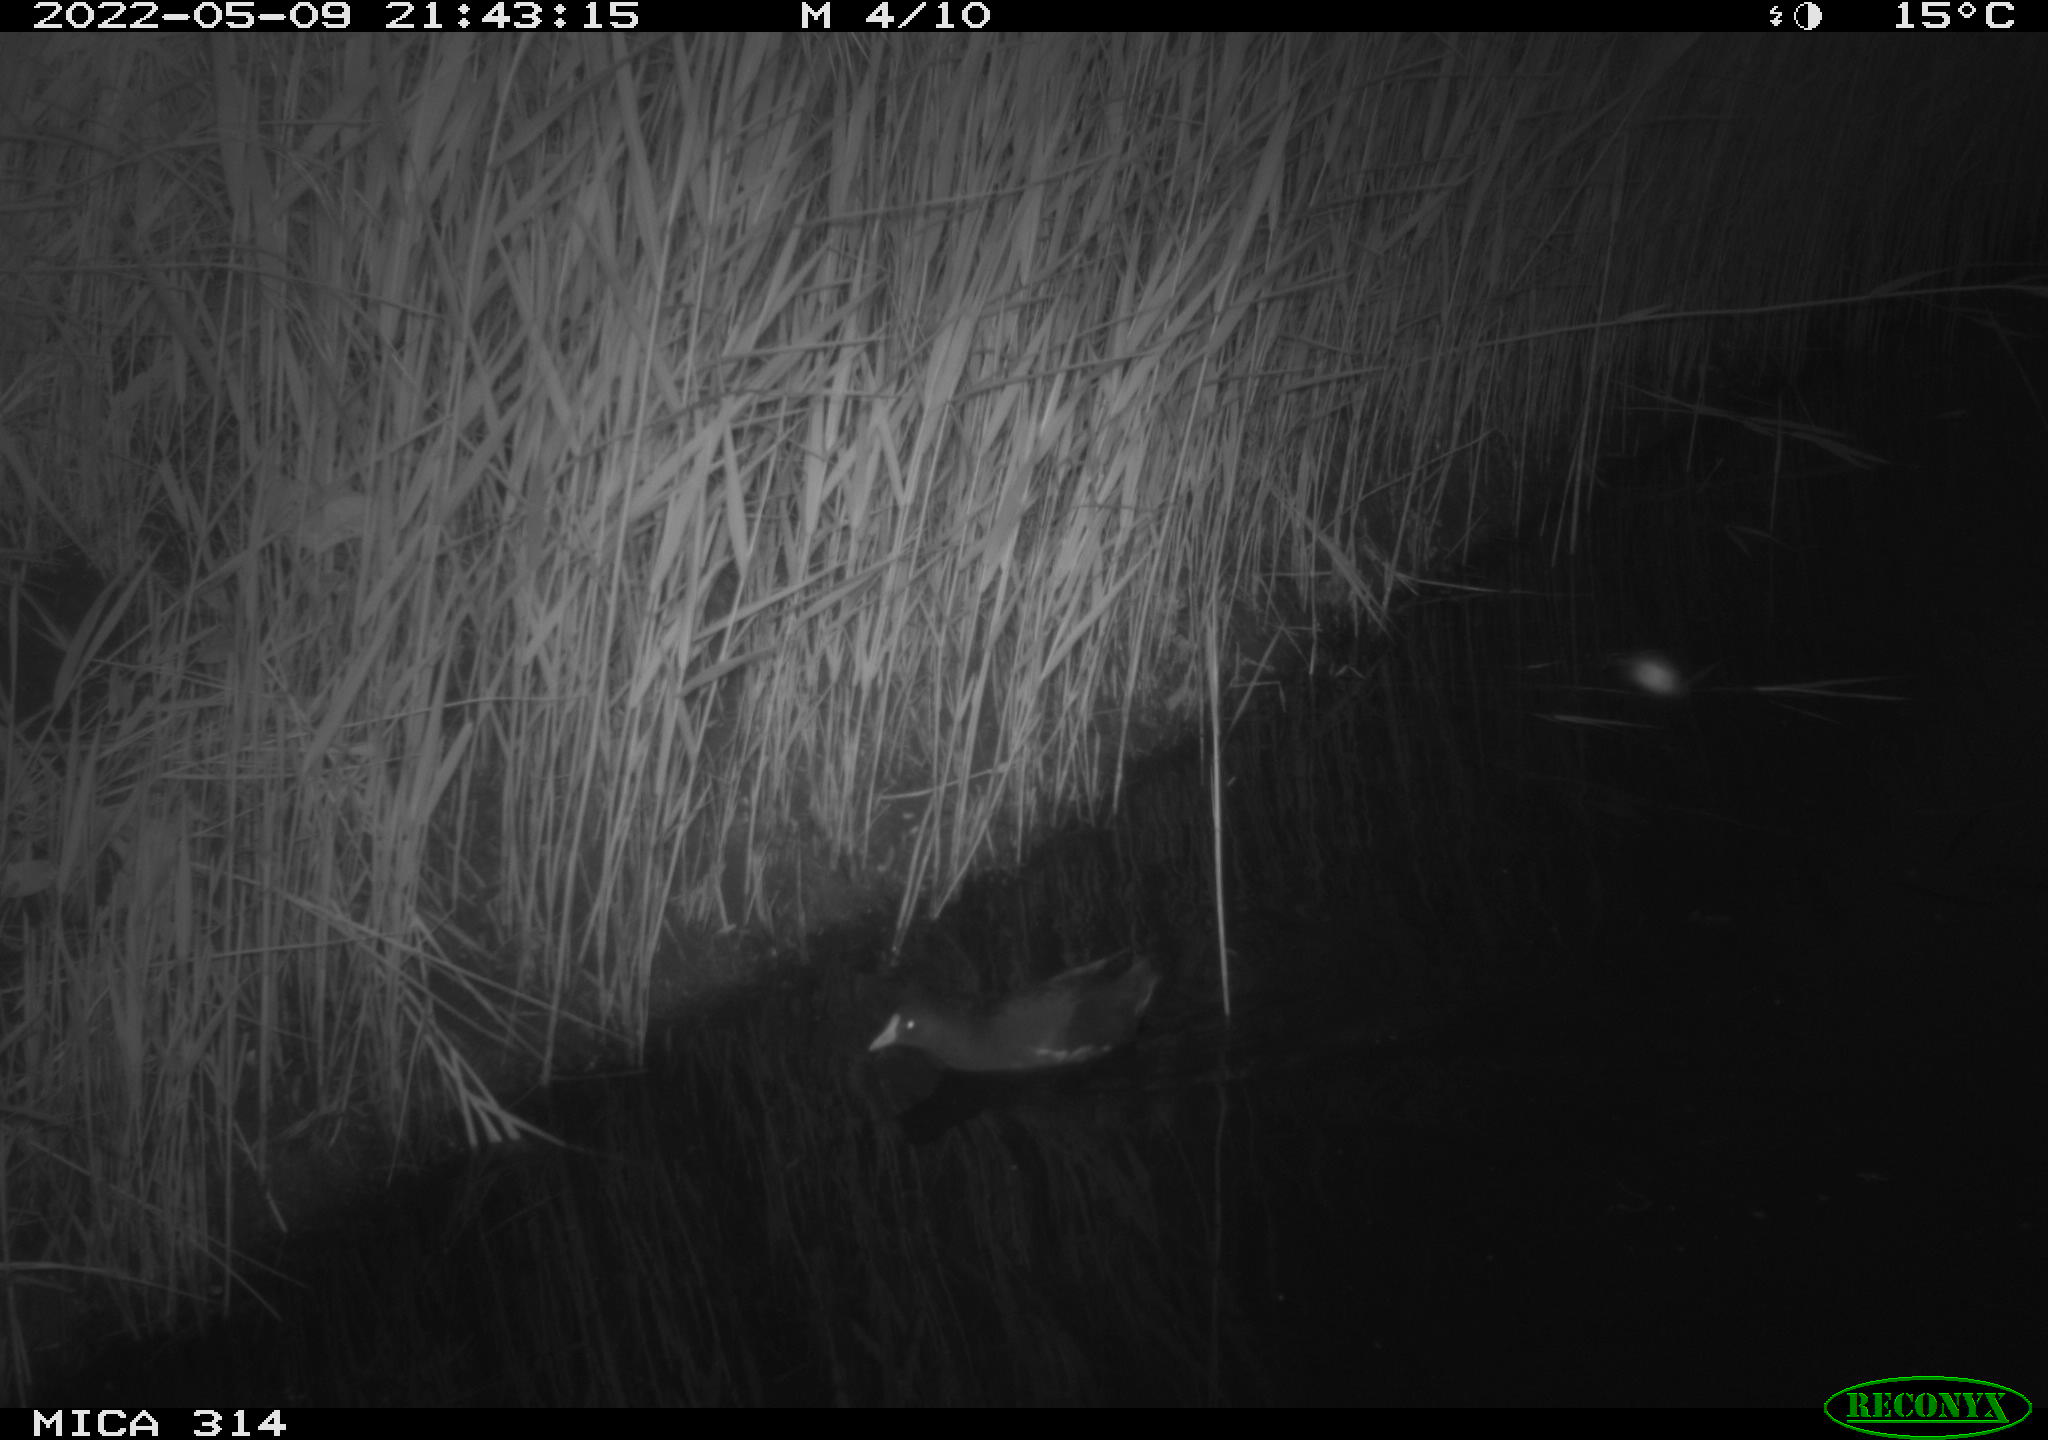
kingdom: Animalia
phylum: Chordata
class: Aves
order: Gruiformes
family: Rallidae
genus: Gallinula
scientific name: Gallinula chloropus
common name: Common moorhen
